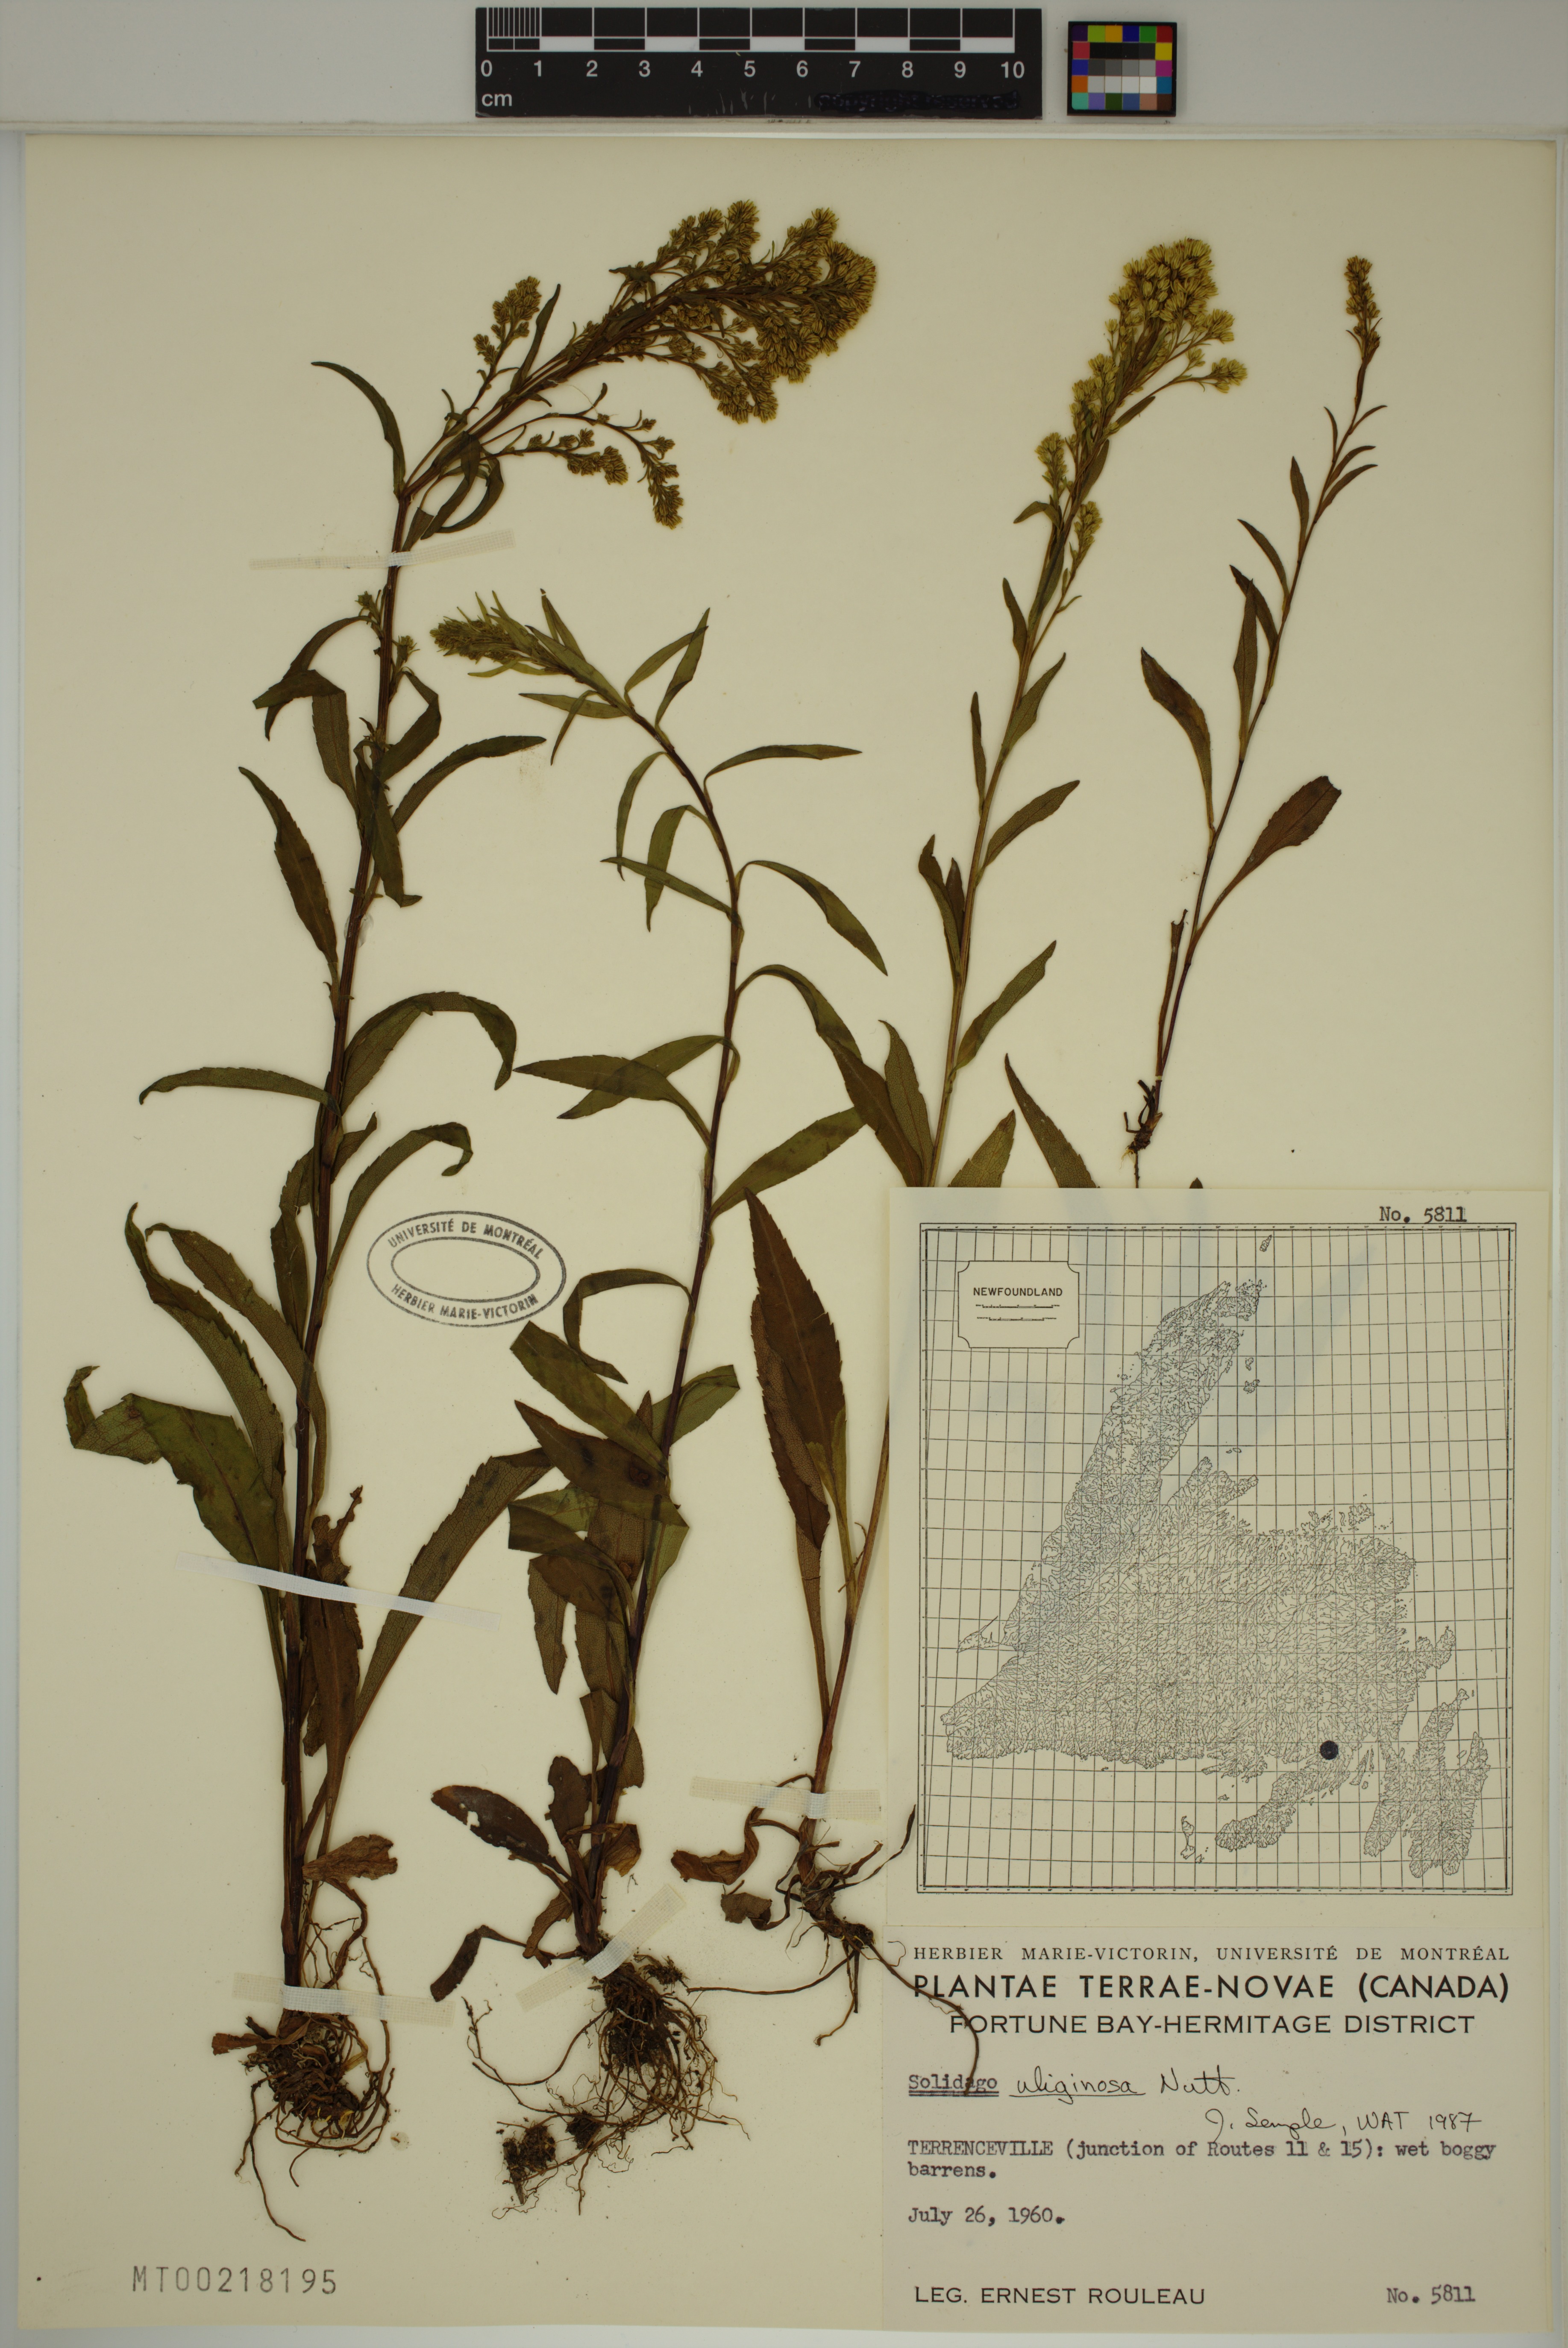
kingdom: Plantae
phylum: Tracheophyta
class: Magnoliopsida
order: Asterales
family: Asteraceae
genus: Solidago
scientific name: Solidago uliginosa
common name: Bog goldenrod
